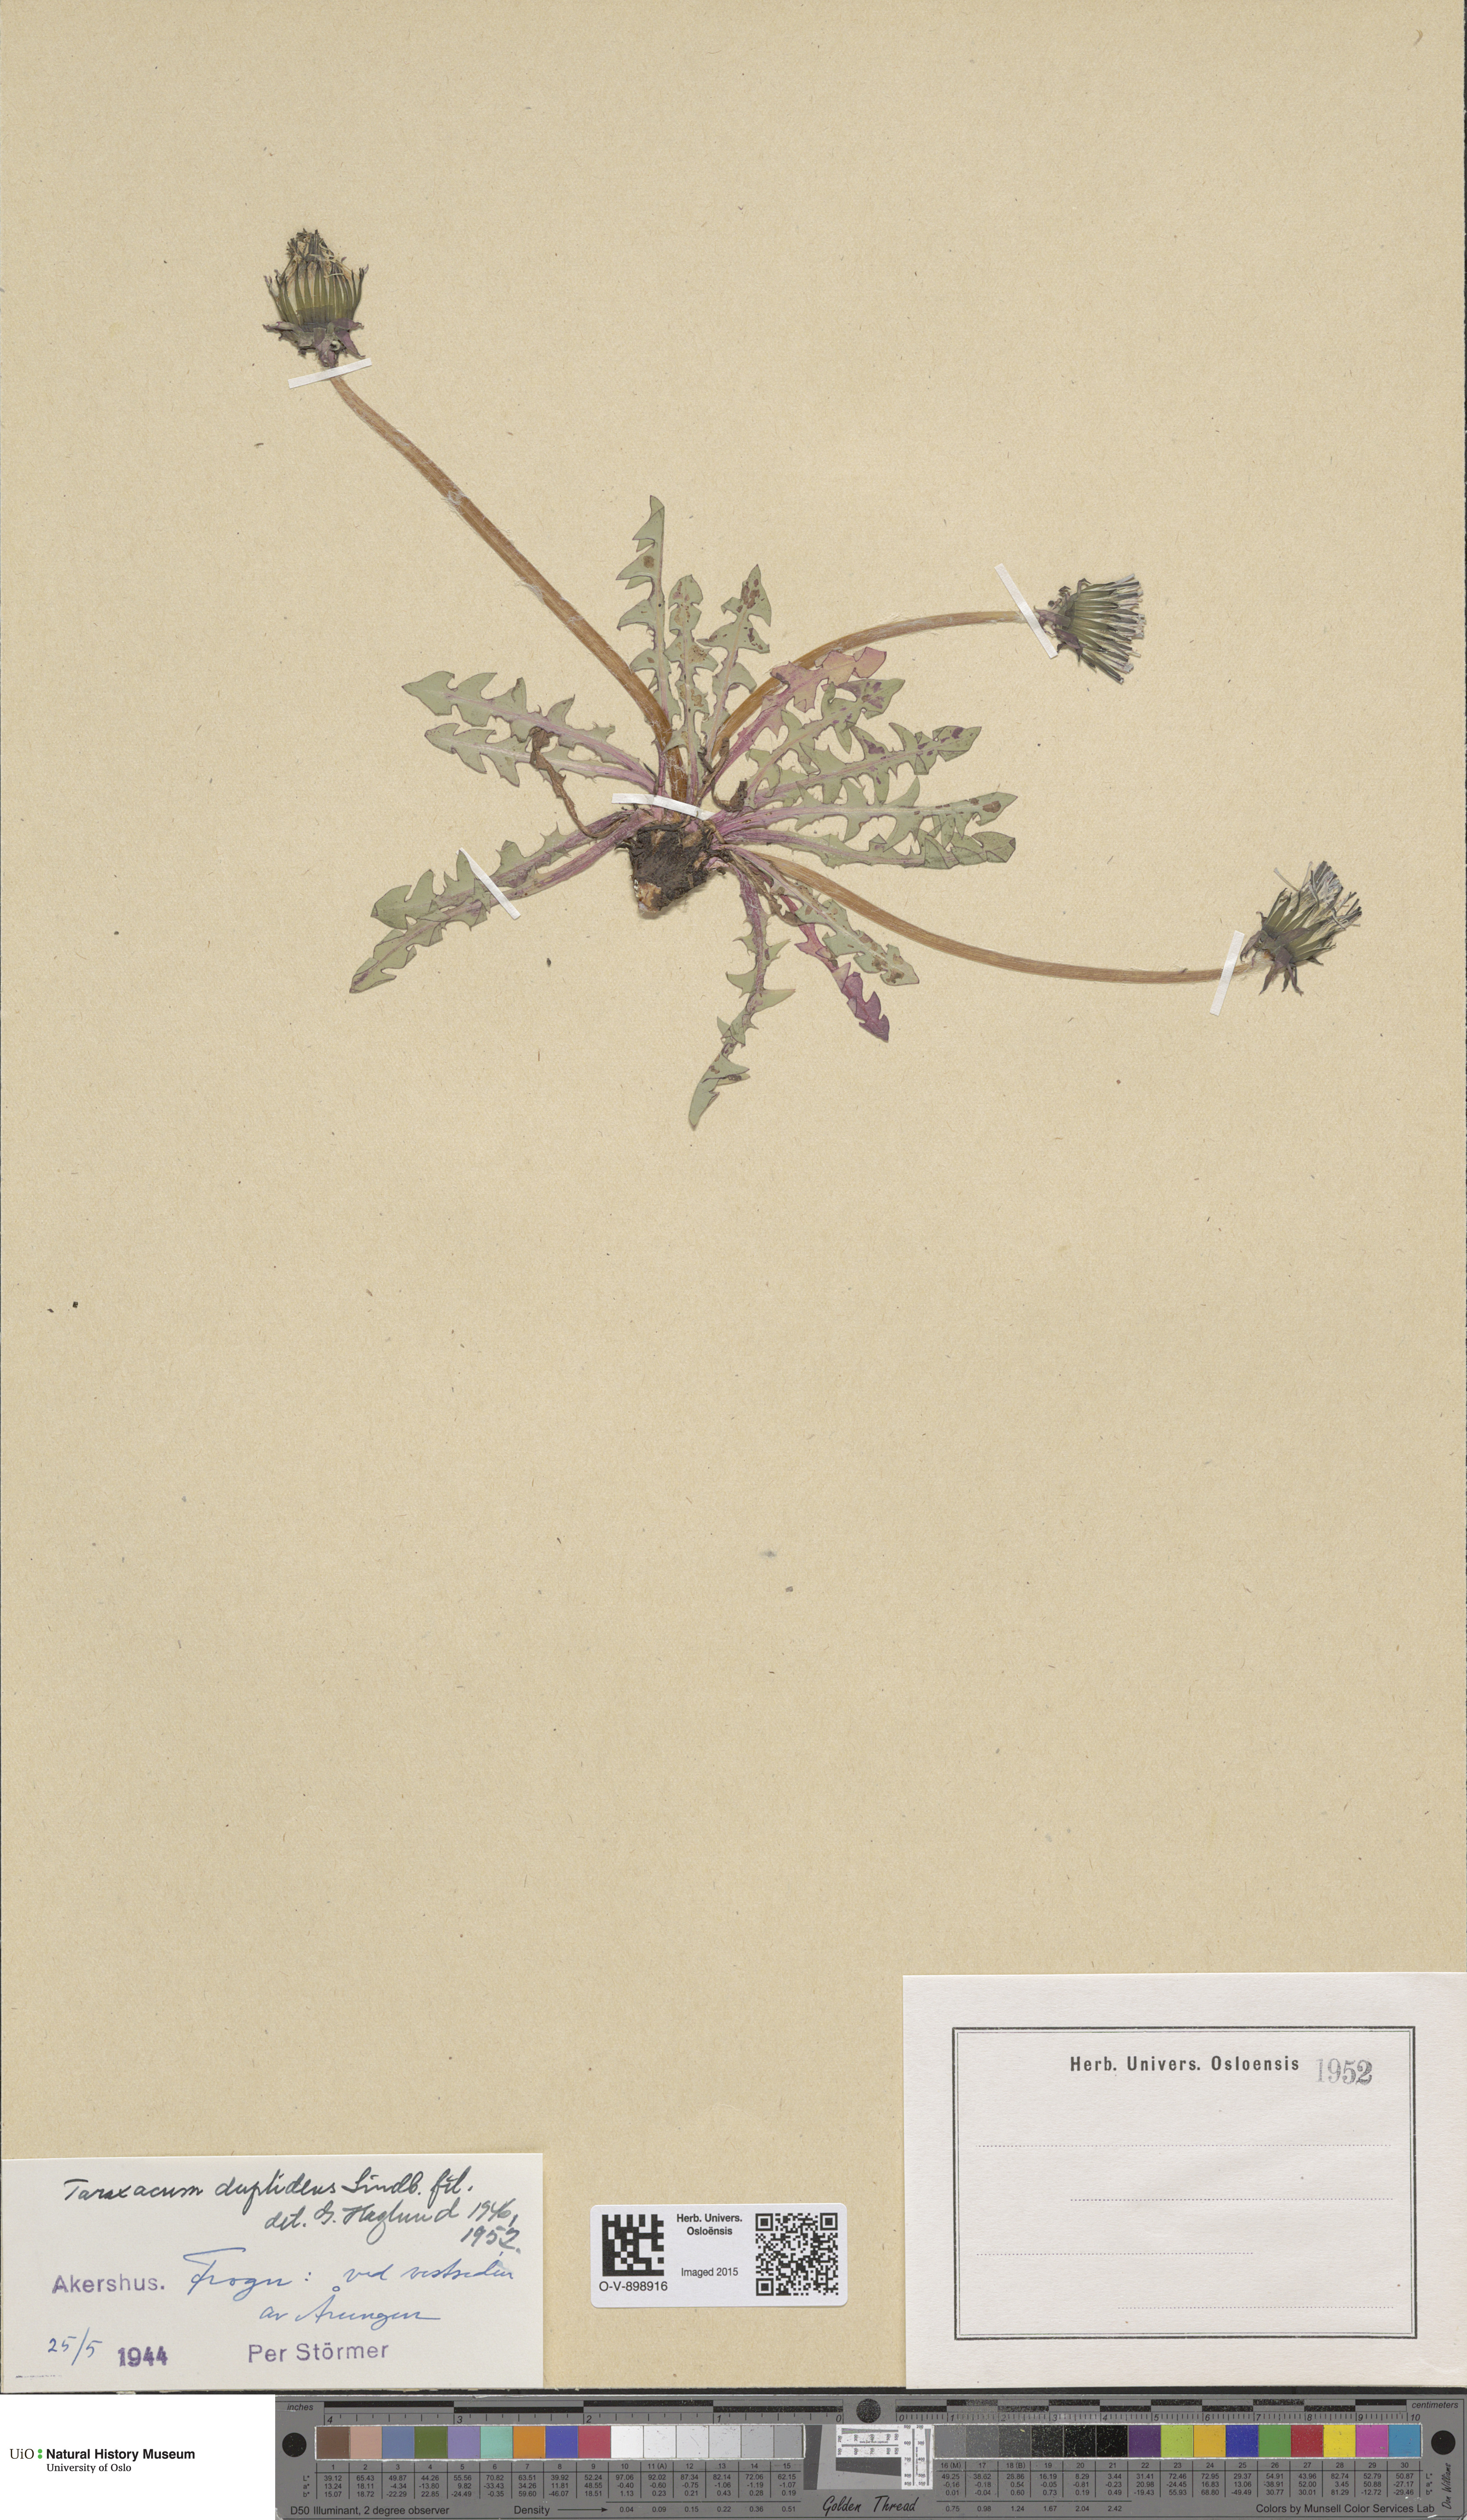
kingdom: Plantae
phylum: Tracheophyta
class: Magnoliopsida
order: Asterales
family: Asteraceae
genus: Taraxacum
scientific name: Taraxacum ostenfeldii
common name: Ostenfeld's dandelion
